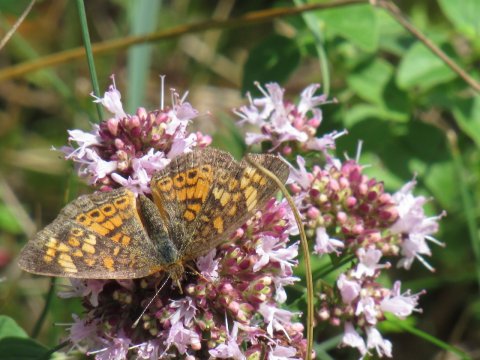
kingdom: Animalia
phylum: Arthropoda
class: Insecta
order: Lepidoptera
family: Nymphalidae
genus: Phyciodes
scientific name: Phyciodes
